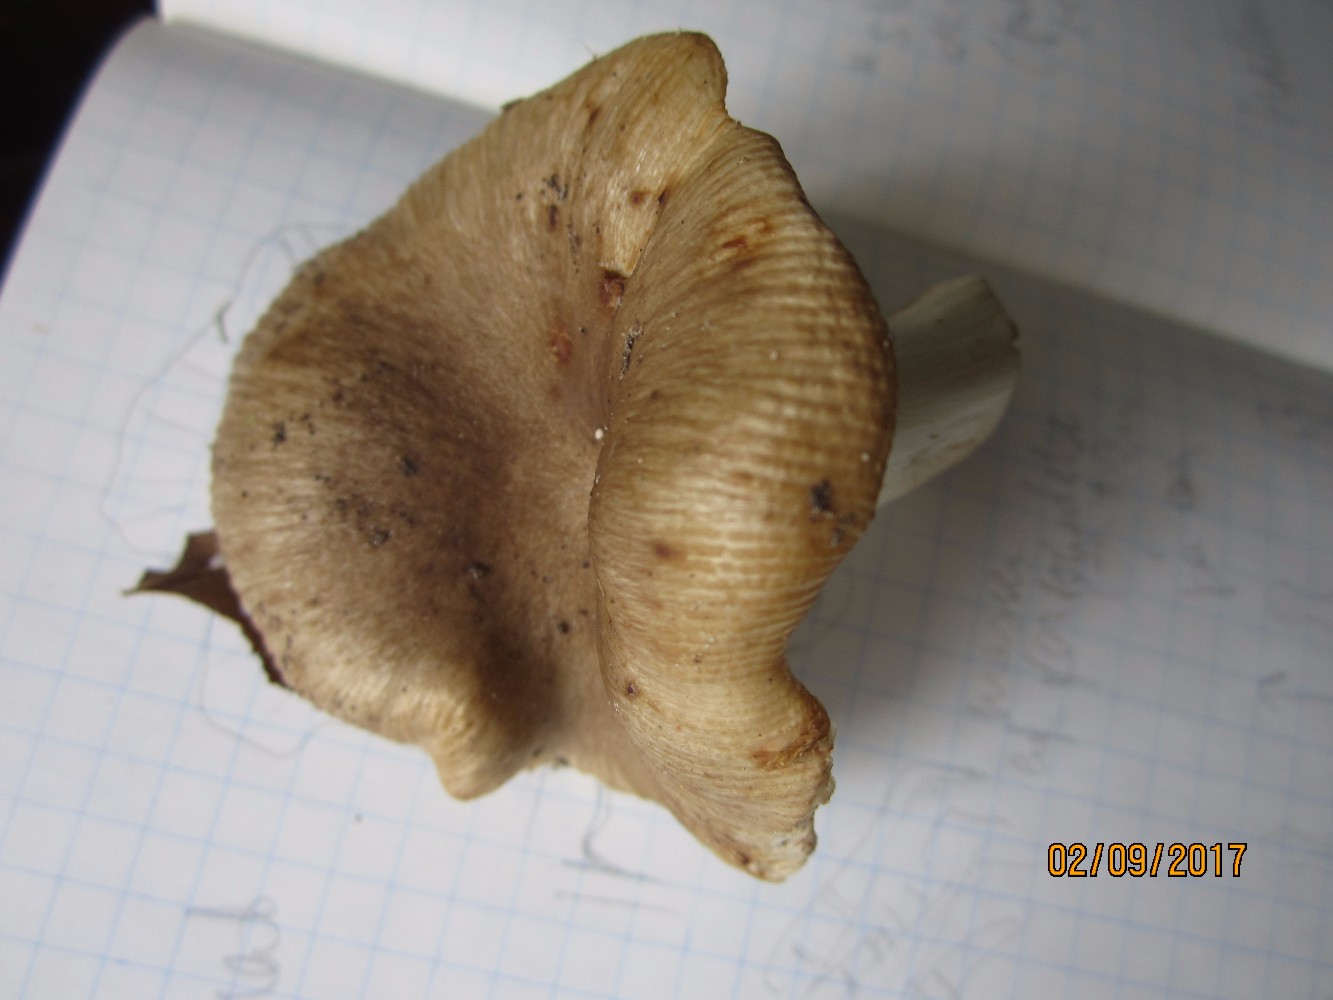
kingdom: Fungi
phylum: Basidiomycota
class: Agaricomycetes
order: Russulales
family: Russulaceae
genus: Russula
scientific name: Russula recondita
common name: mild kam-skørhat
